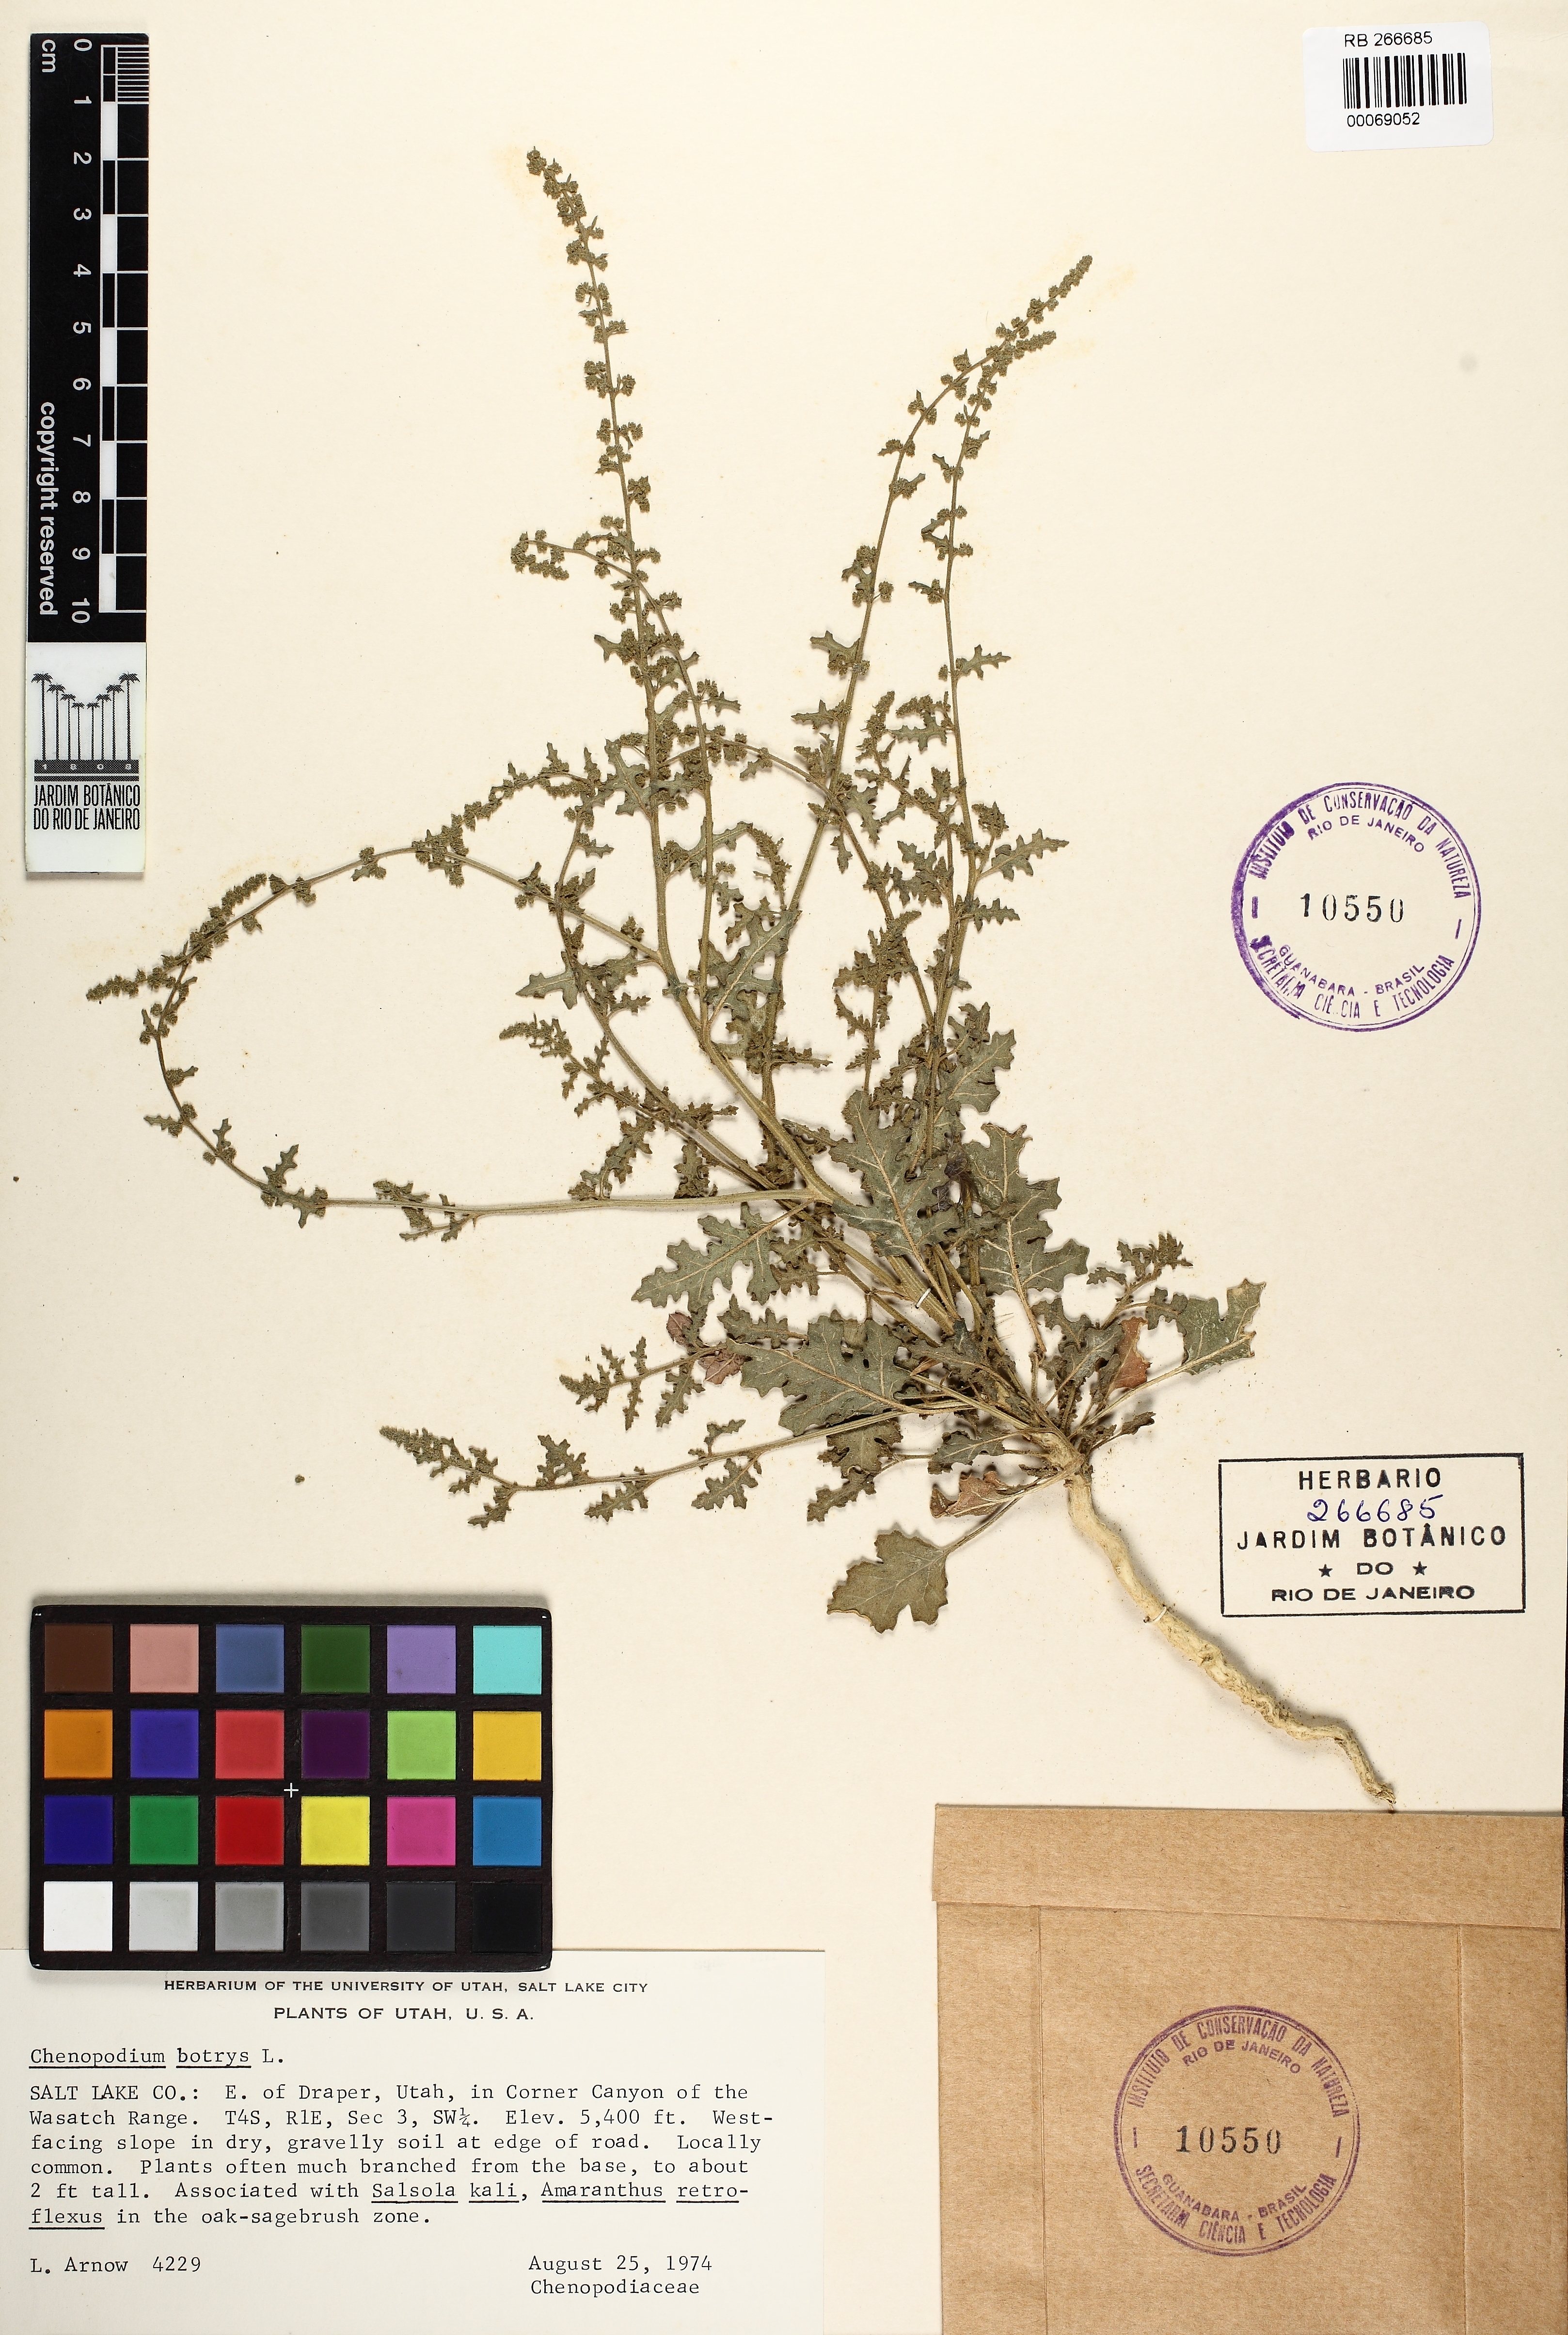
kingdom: Plantae
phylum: Tracheophyta
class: Magnoliopsida
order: Caryophyllales
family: Amaranthaceae
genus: Dysphania
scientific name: Dysphania botrys
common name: Feather-geranium
